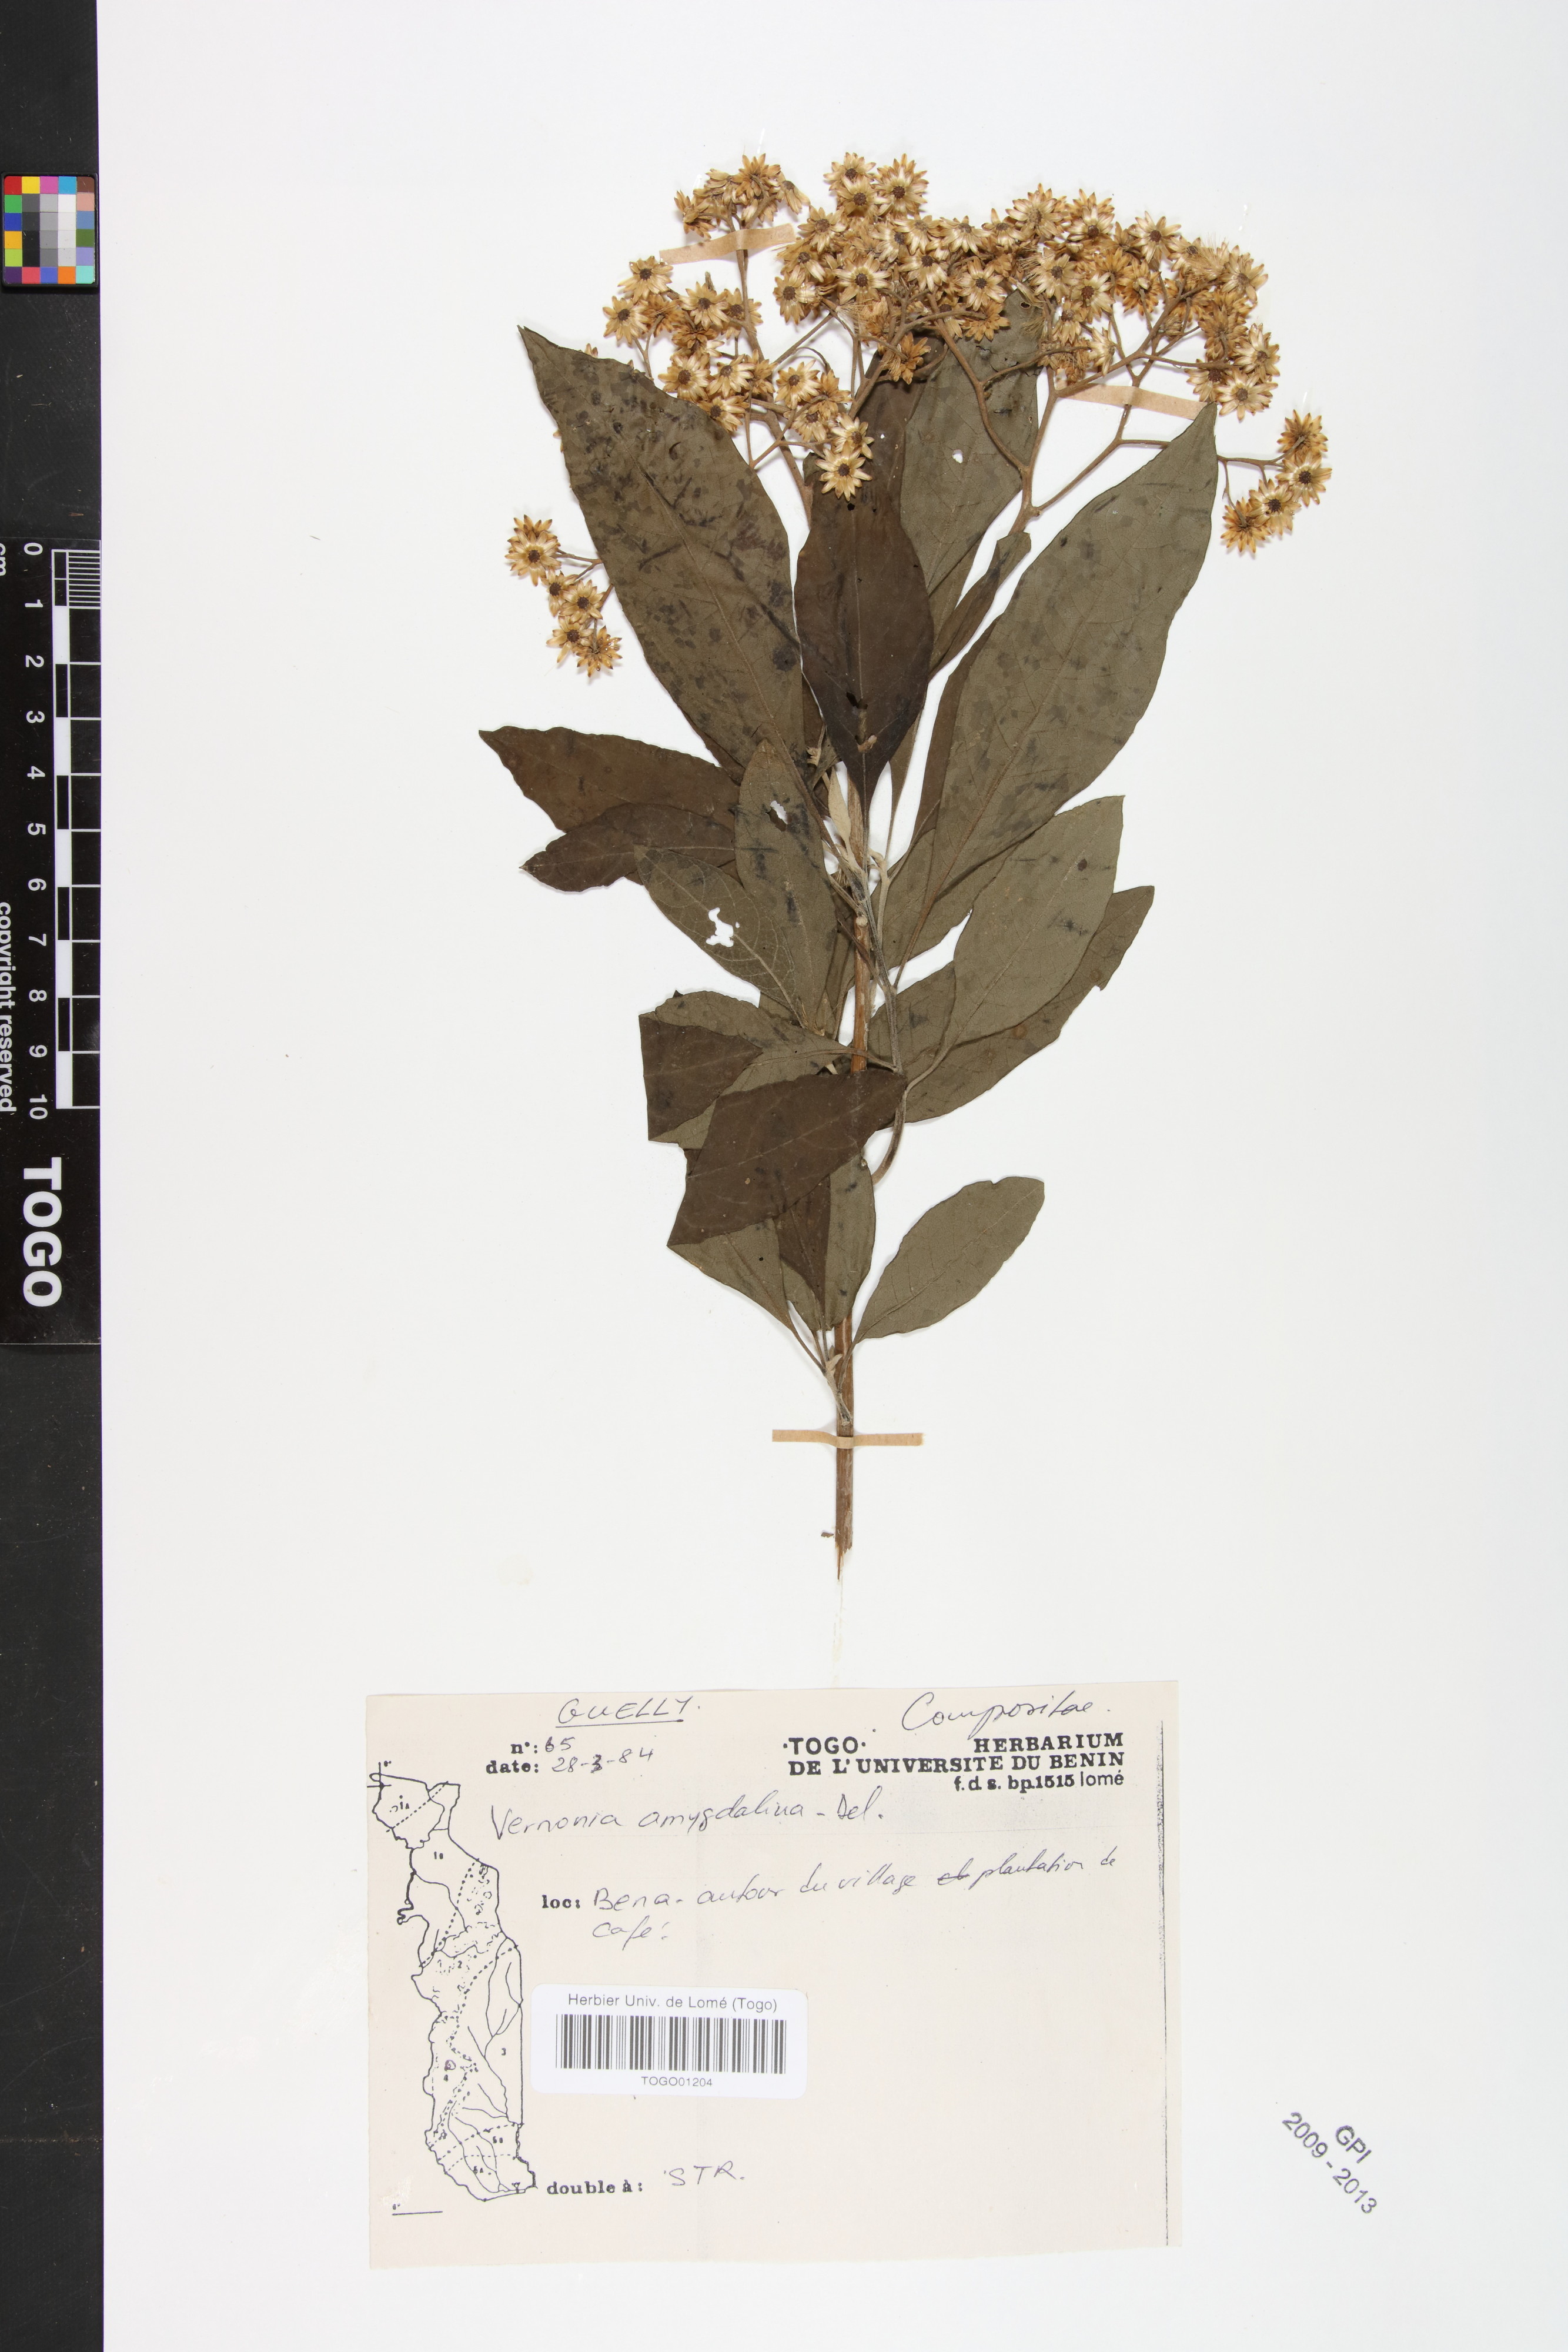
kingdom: Plantae
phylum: Tracheophyta
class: Magnoliopsida
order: Asterales
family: Asteraceae
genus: Gymnanthemum
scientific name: Gymnanthemum amygdalinum
